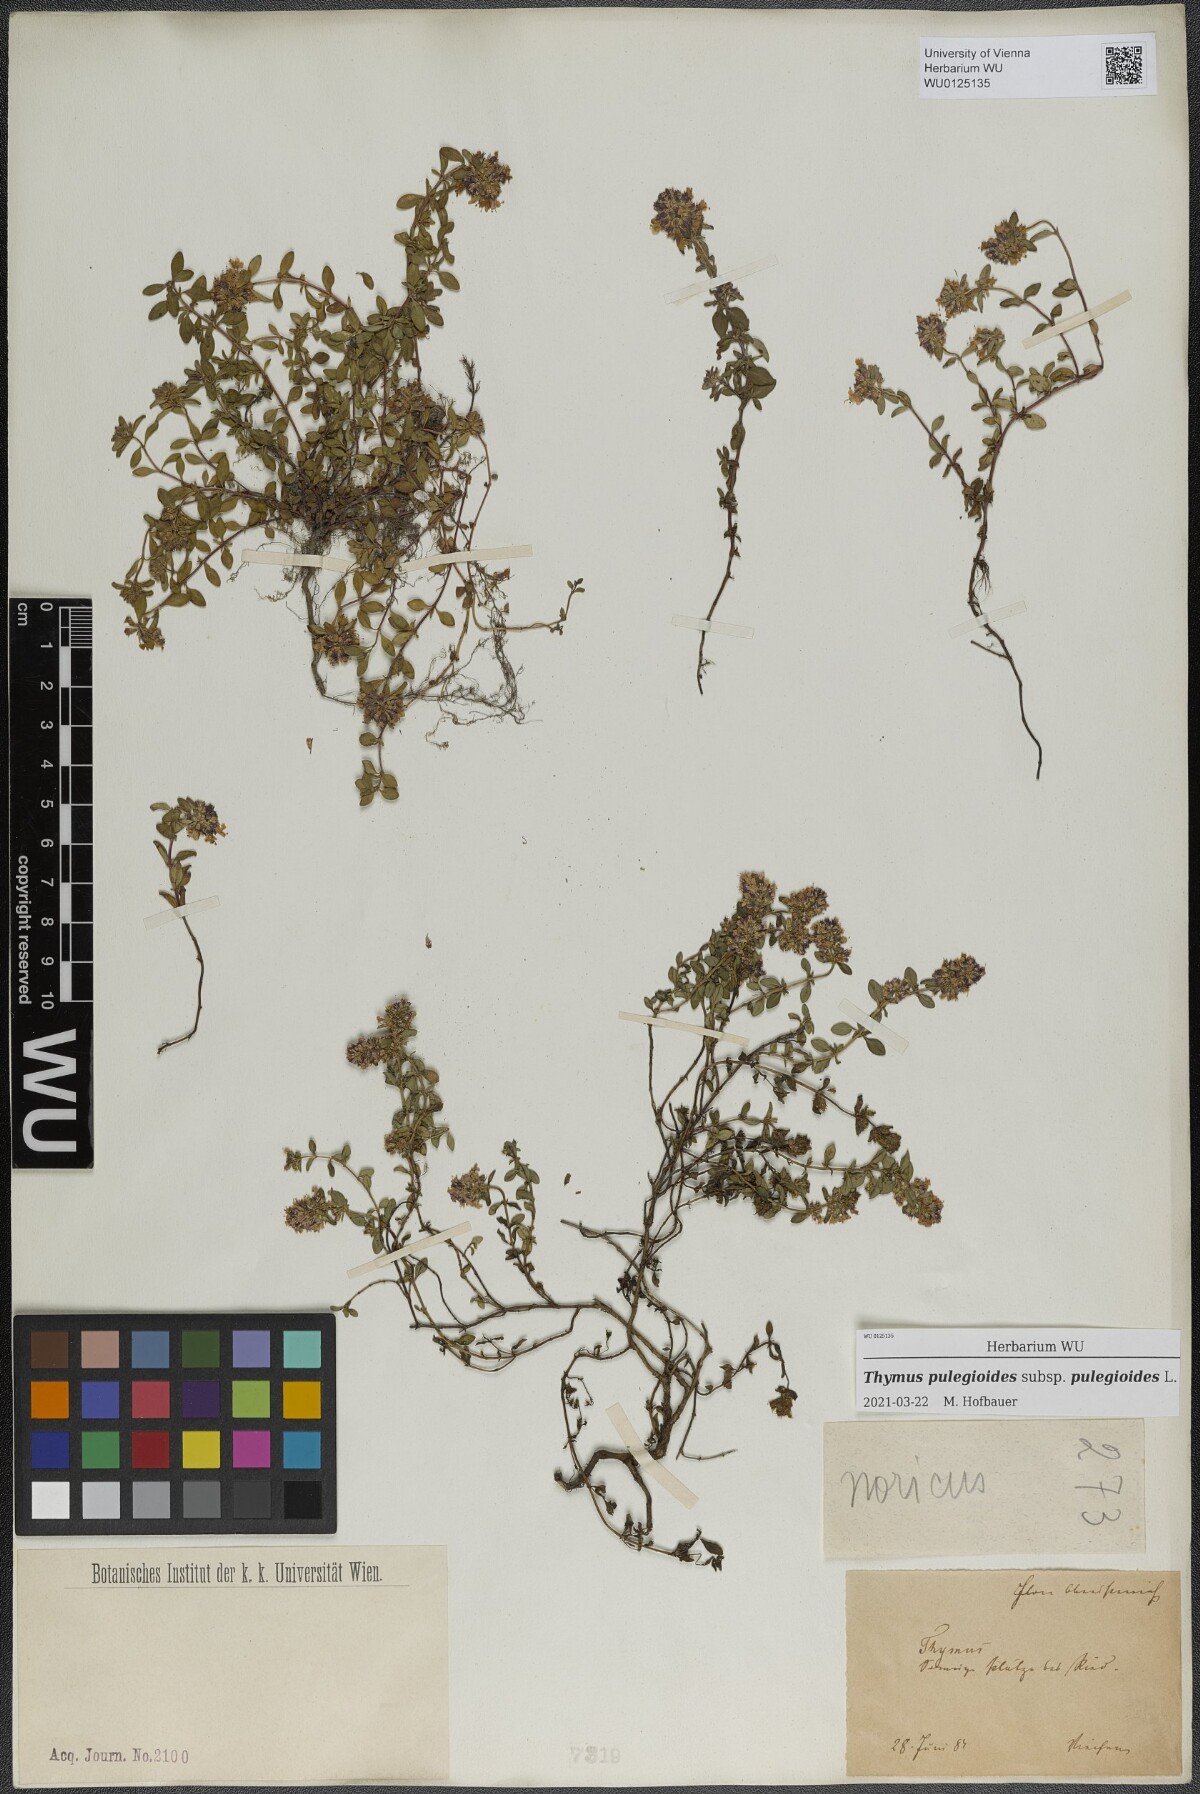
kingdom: Plantae
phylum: Tracheophyta
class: Magnoliopsida
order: Lamiales
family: Lamiaceae
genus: Thymus
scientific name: Thymus pulegioides
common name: Large thyme
